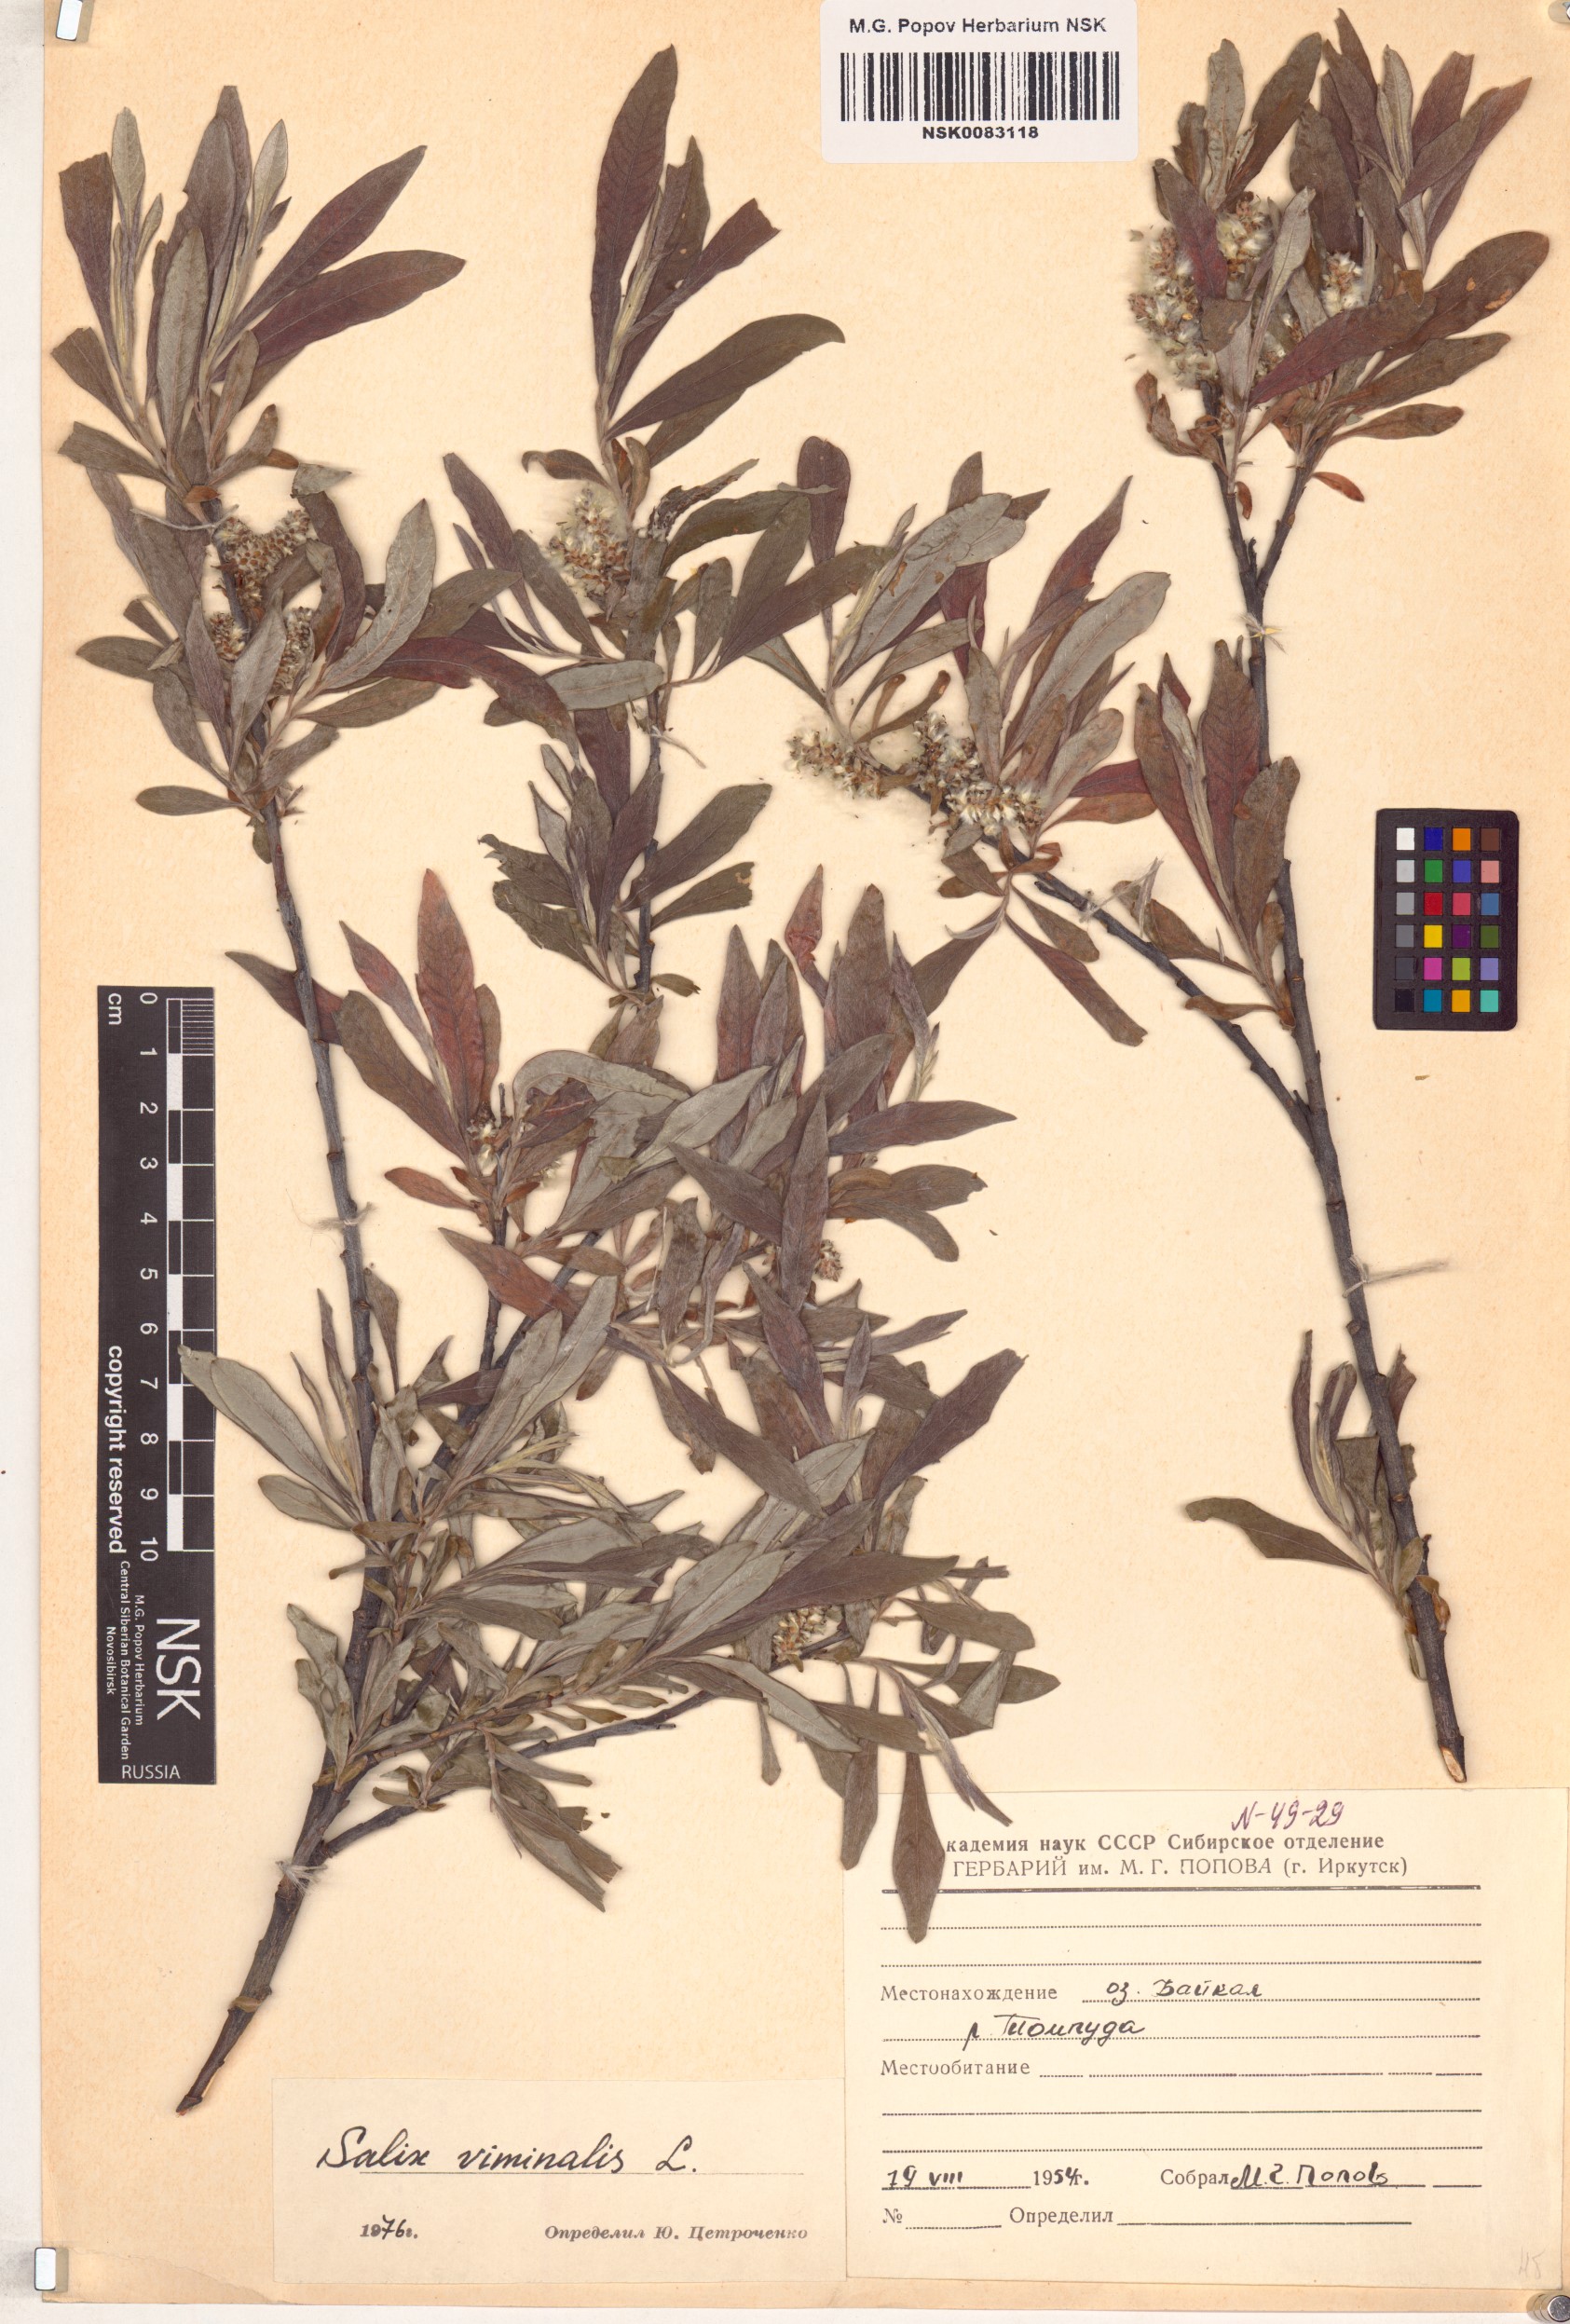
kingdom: Plantae
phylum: Tracheophyta
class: Magnoliopsida
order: Malpighiales
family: Salicaceae
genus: Salix
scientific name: Salix viminalis
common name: Osier
